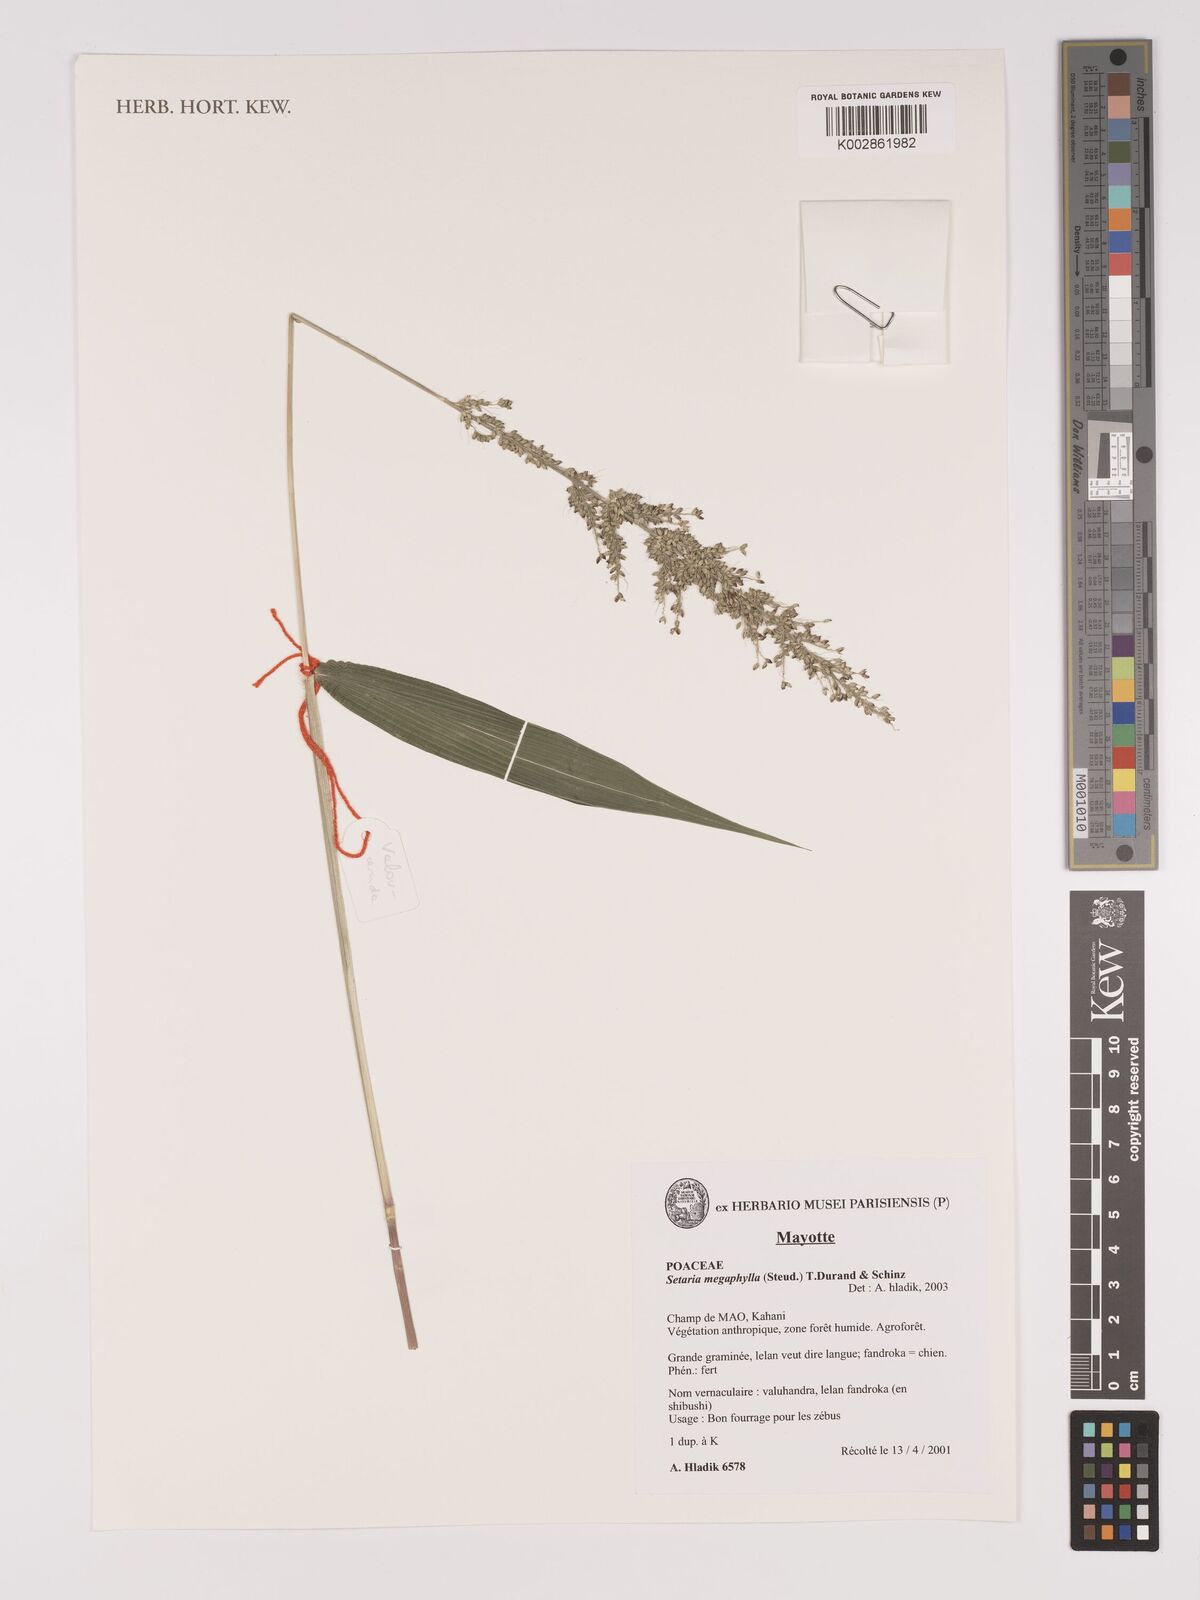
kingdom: Plantae
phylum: Tracheophyta
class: Liliopsida
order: Poales
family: Poaceae
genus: Setaria
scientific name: Setaria megaphylla
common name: Bigleaf bristlegrass
